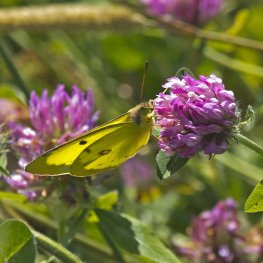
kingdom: Animalia
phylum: Arthropoda
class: Insecta
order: Lepidoptera
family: Pieridae
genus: Colias
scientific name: Colias philodice
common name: Clouded Sulphur
